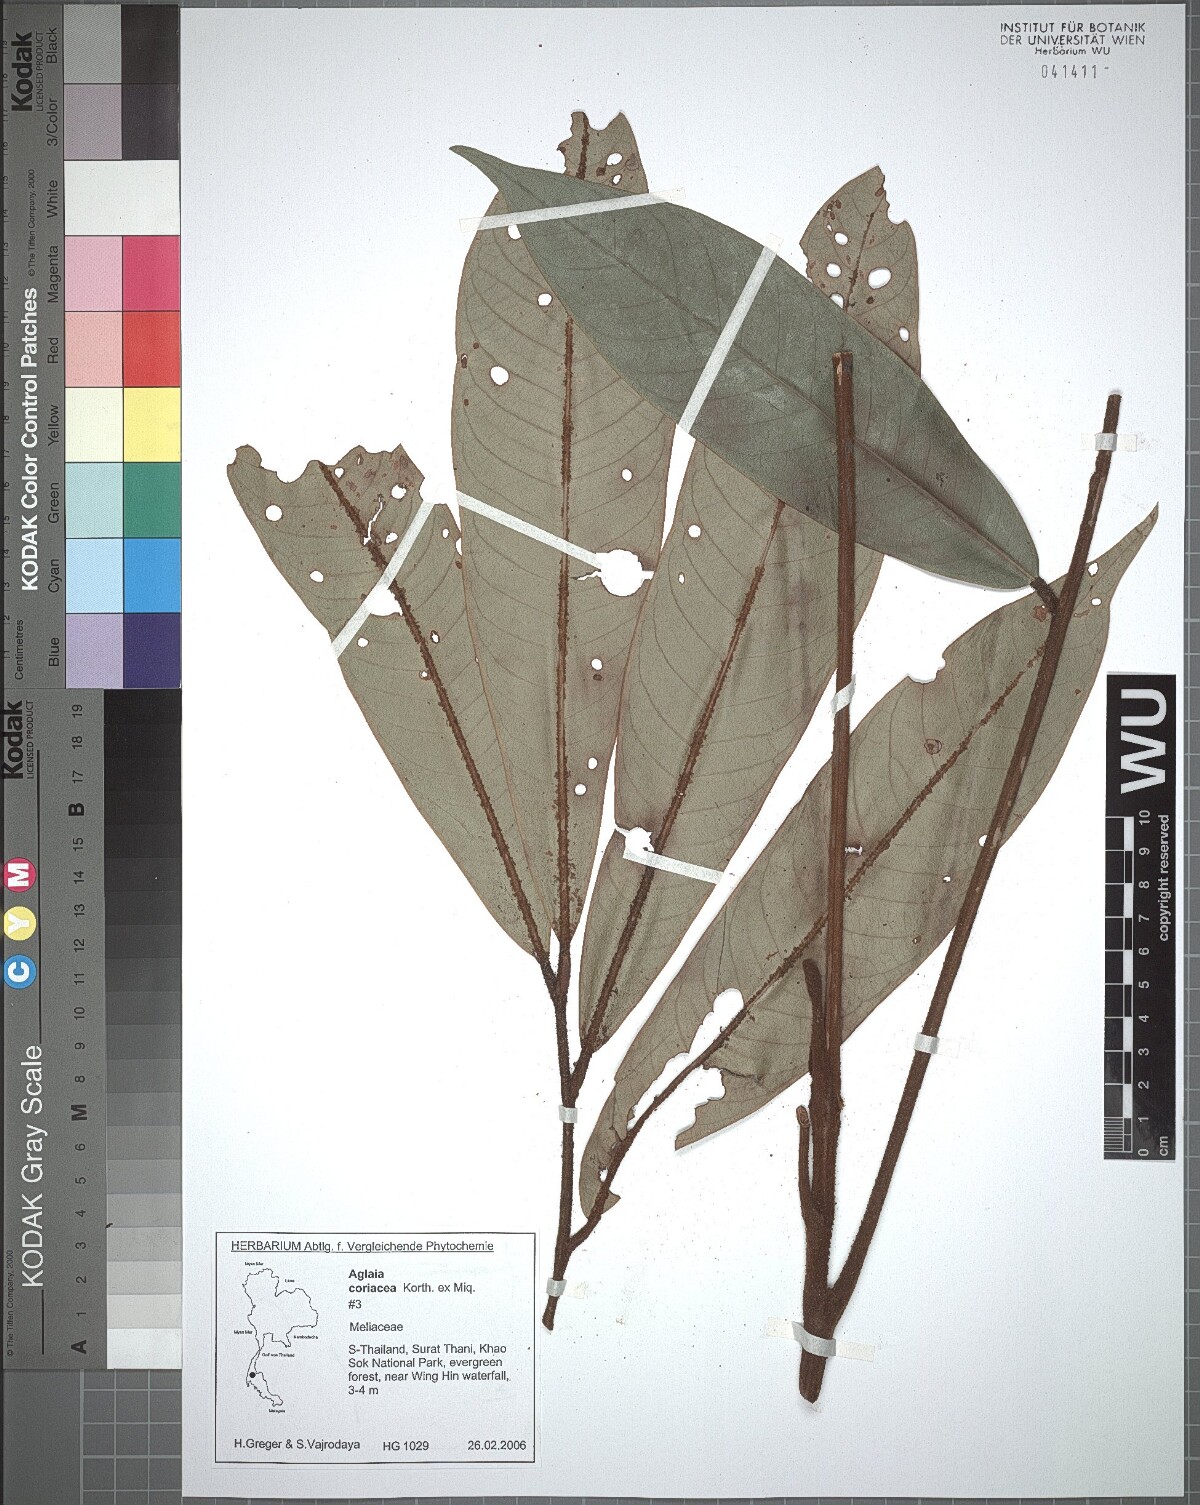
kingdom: Plantae
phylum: Tracheophyta
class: Magnoliopsida
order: Sapindales
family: Meliaceae
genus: Aglaia
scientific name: Aglaia coriacea
